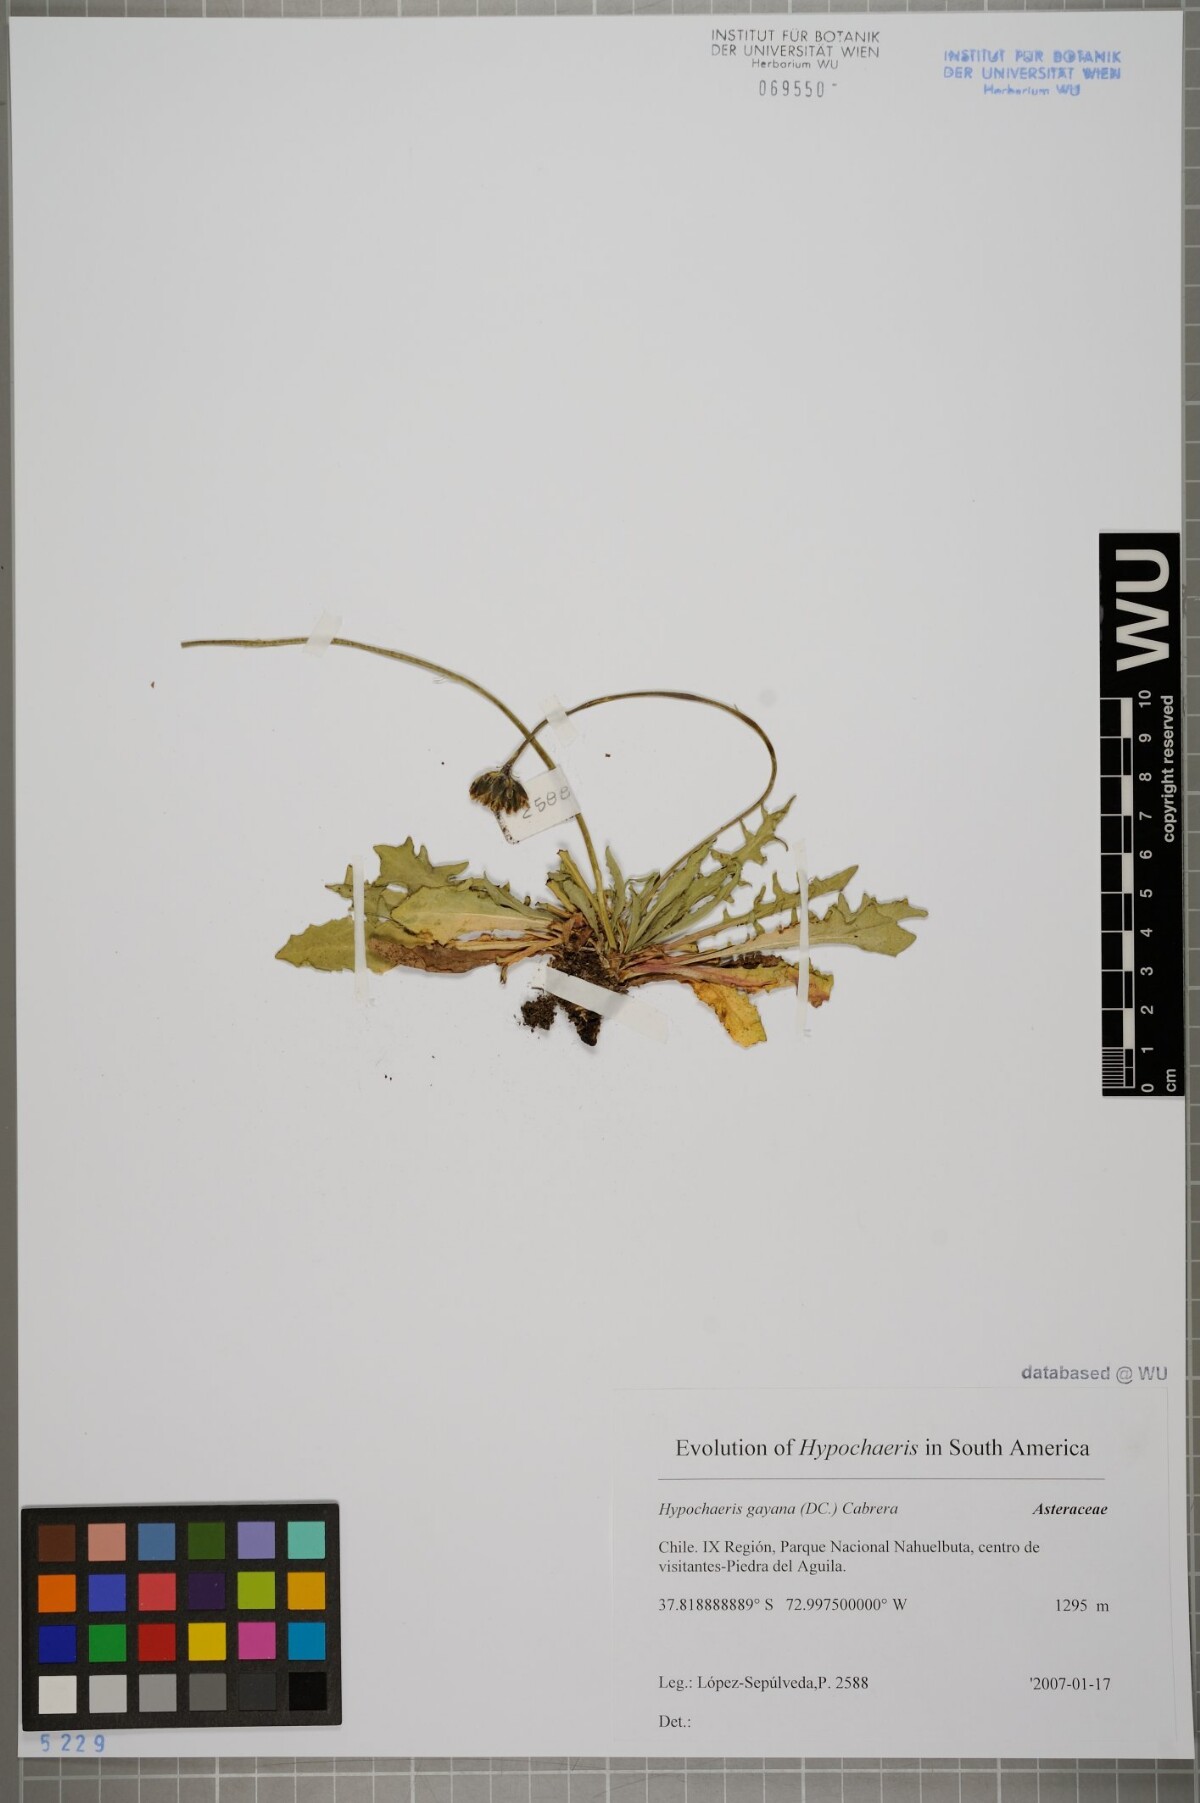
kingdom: Plantae
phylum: Tracheophyta
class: Magnoliopsida
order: Asterales
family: Asteraceae
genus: Hypochaeris
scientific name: Hypochaeris melanolepis
